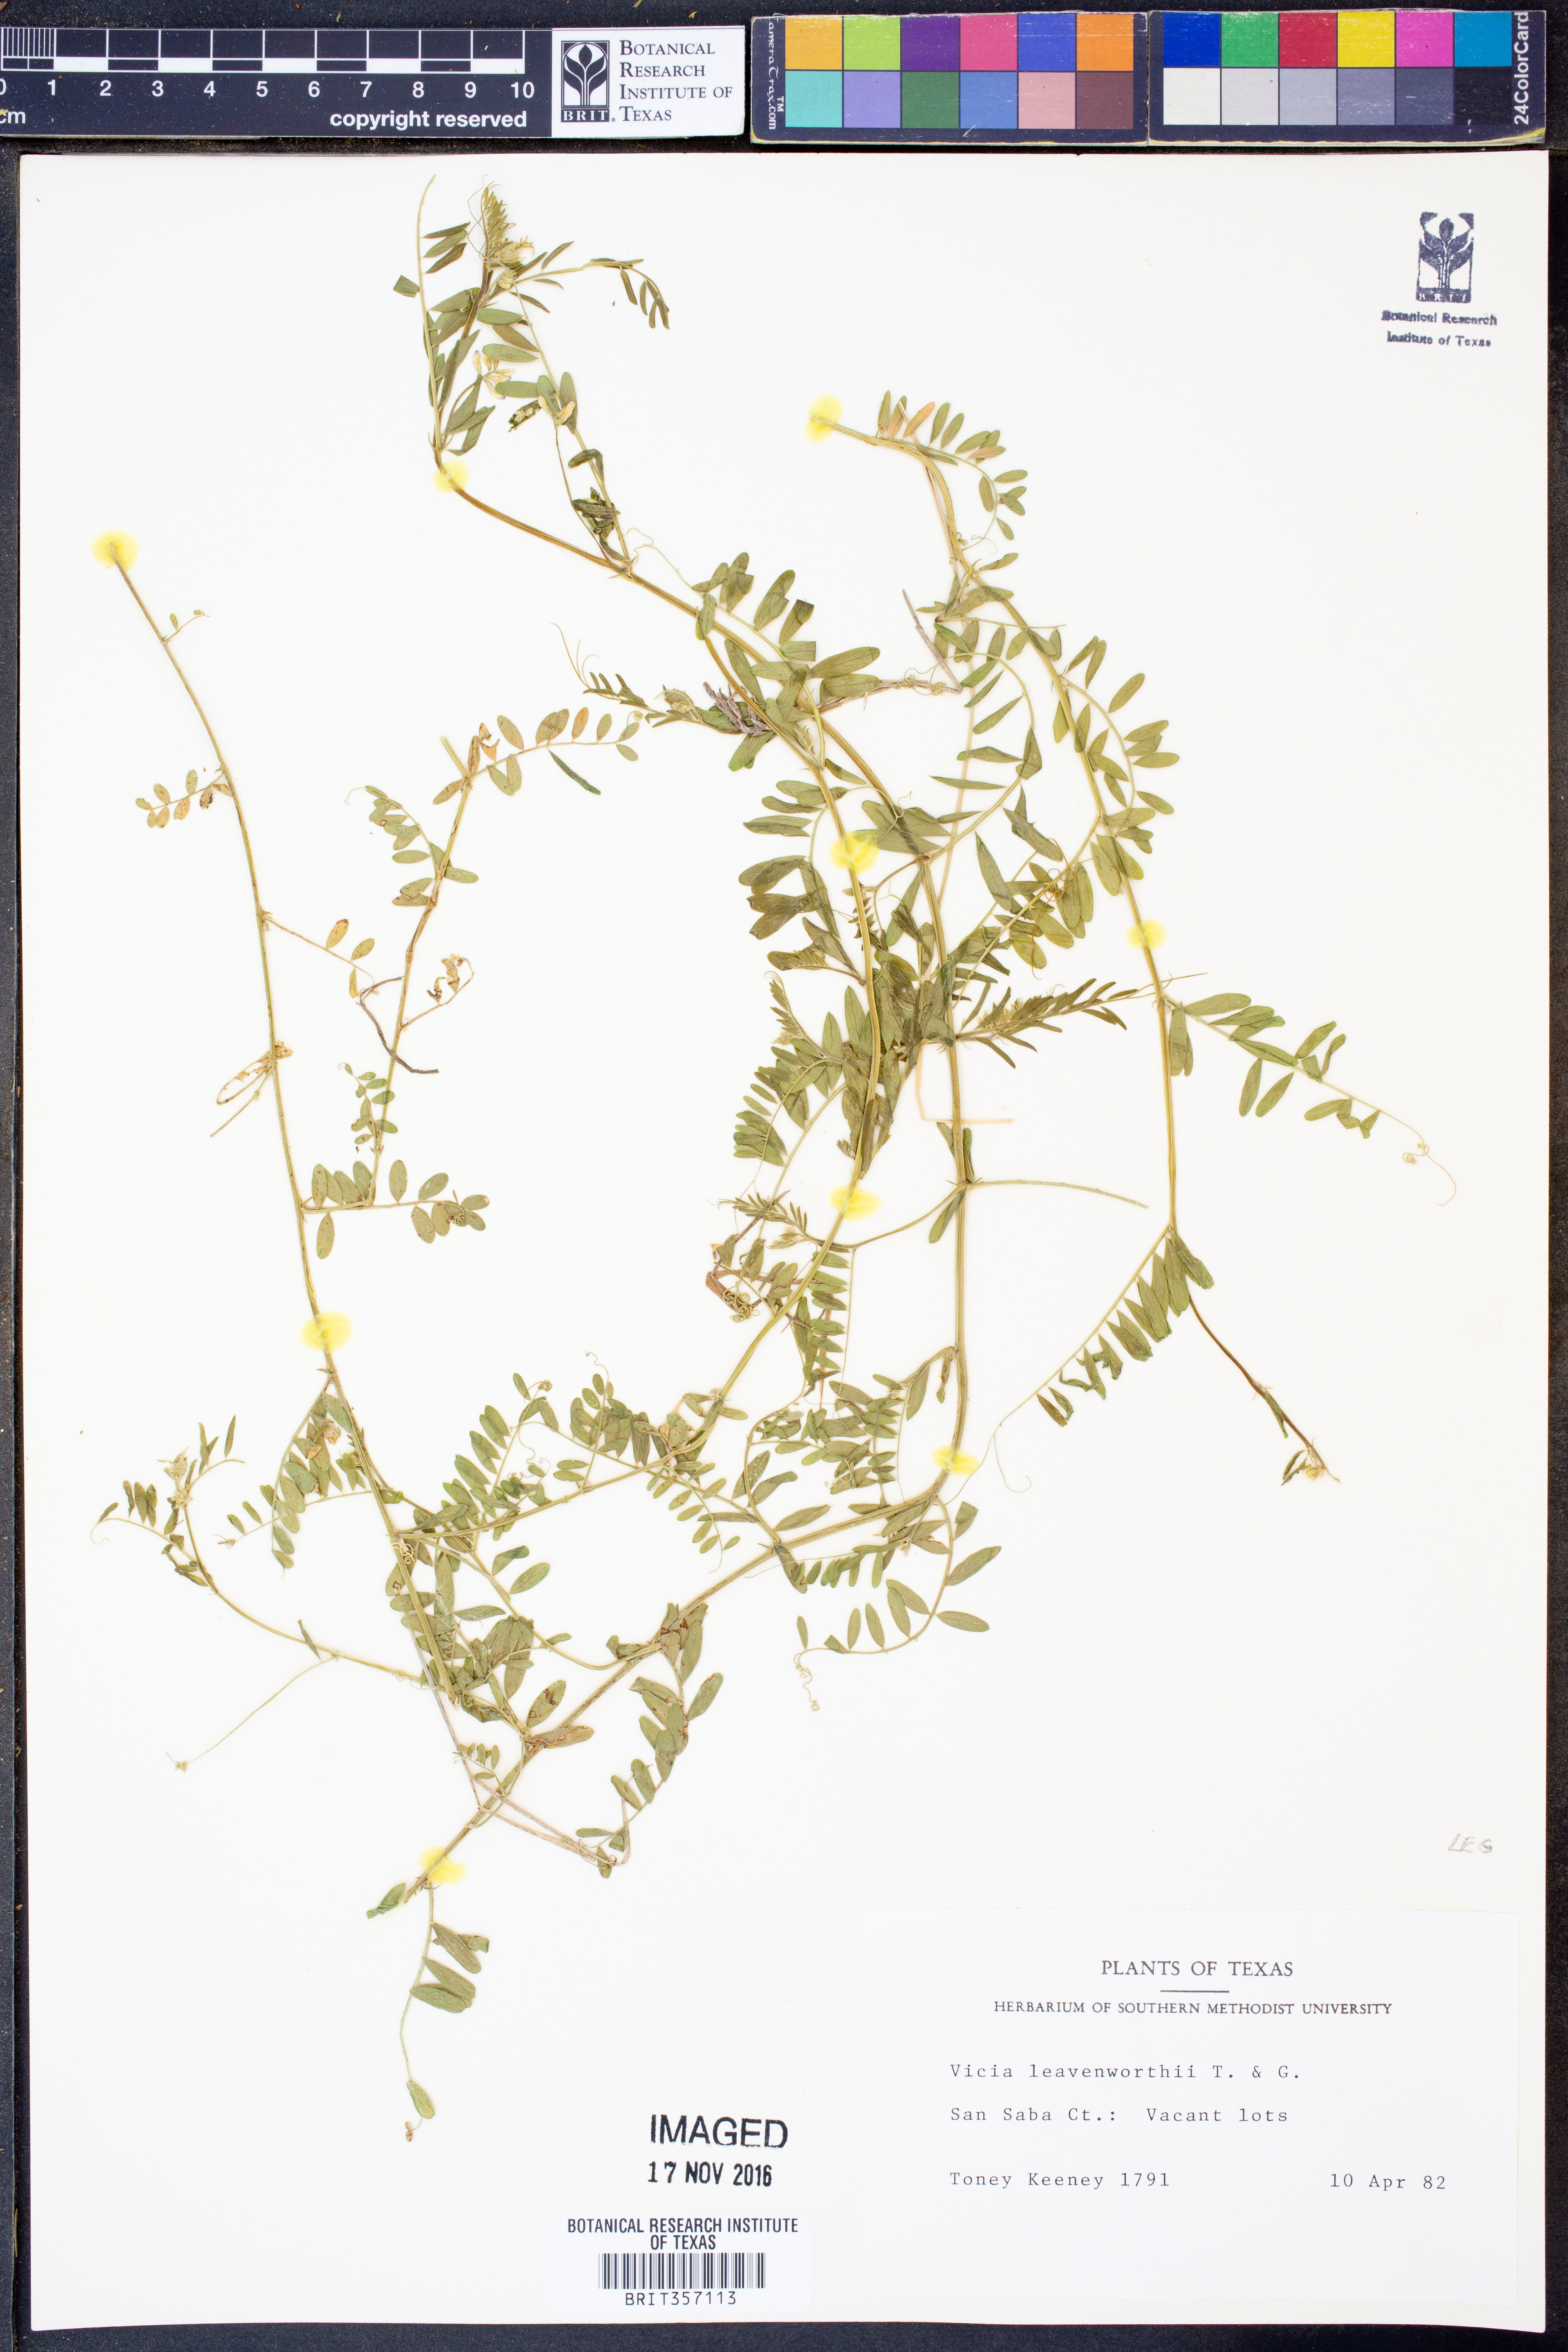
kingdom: Plantae
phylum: Tracheophyta
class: Magnoliopsida
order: Fabales
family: Fabaceae
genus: Vicia
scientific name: Vicia ludoviciana
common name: Louisiana vetch
